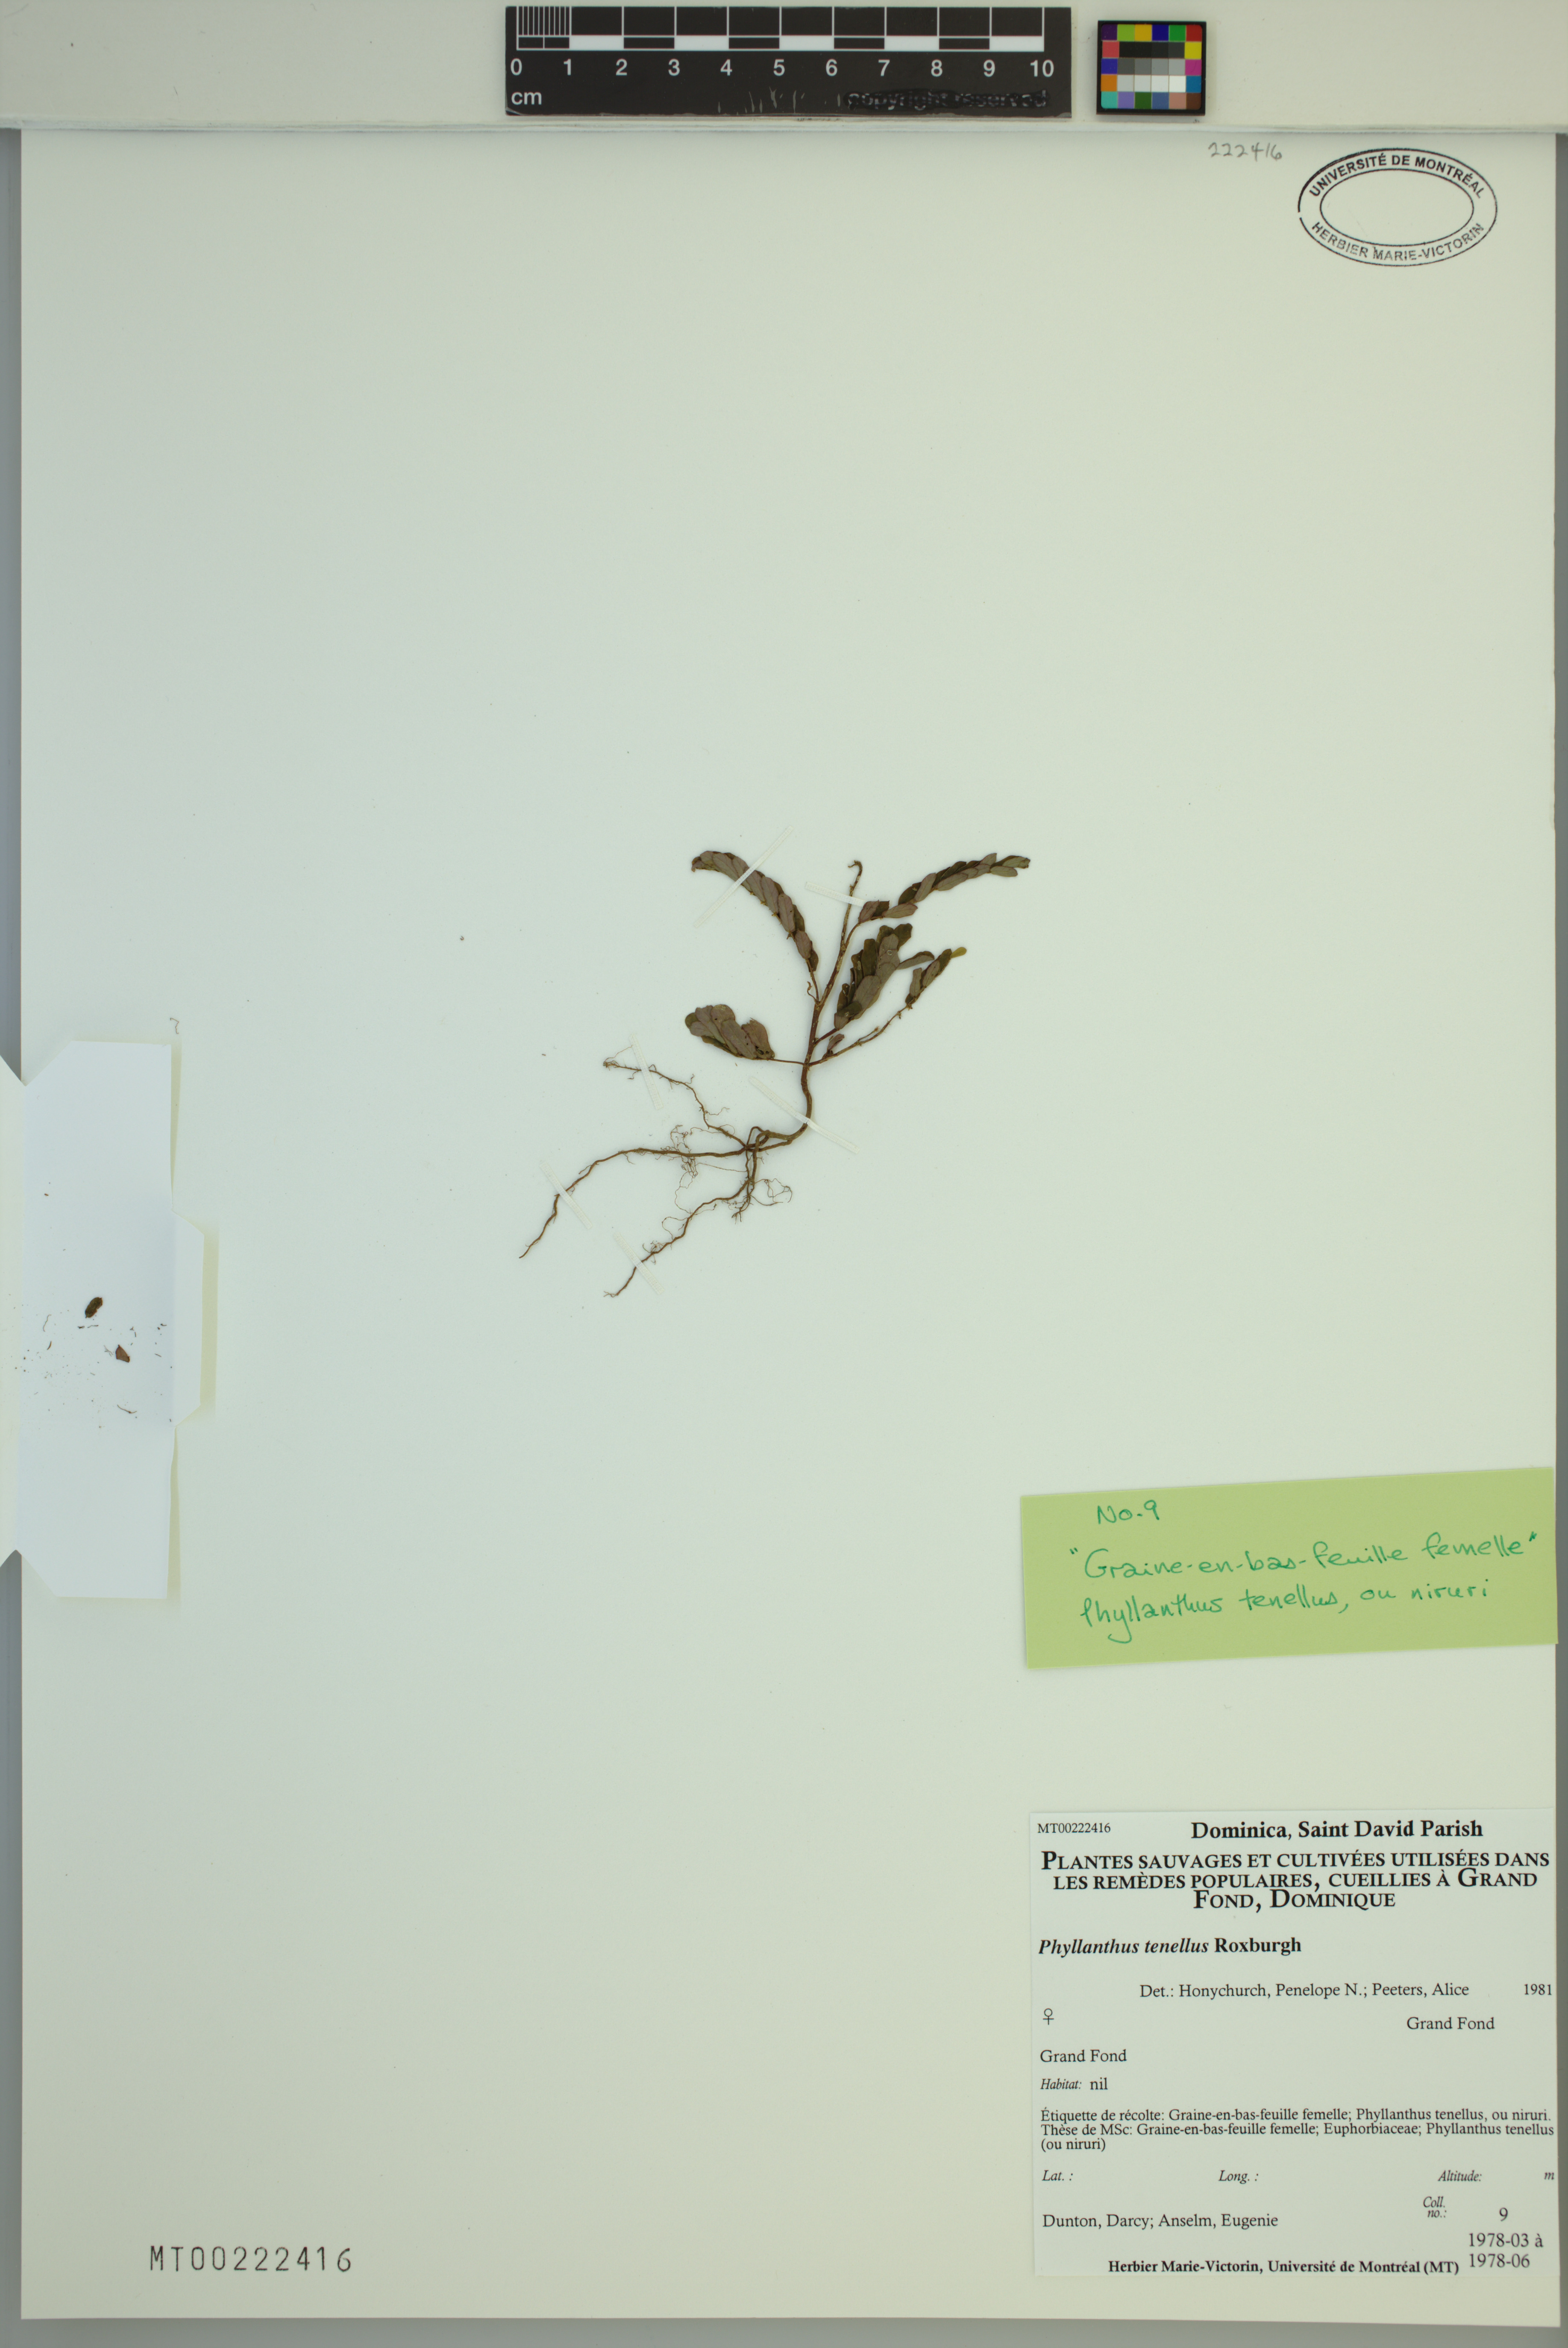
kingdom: Plantae
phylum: Tracheophyta
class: Magnoliopsida
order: Malpighiales
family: Phyllanthaceae
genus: Phyllanthus
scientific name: Phyllanthus tenellus
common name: Mascarene island leaf-flower
